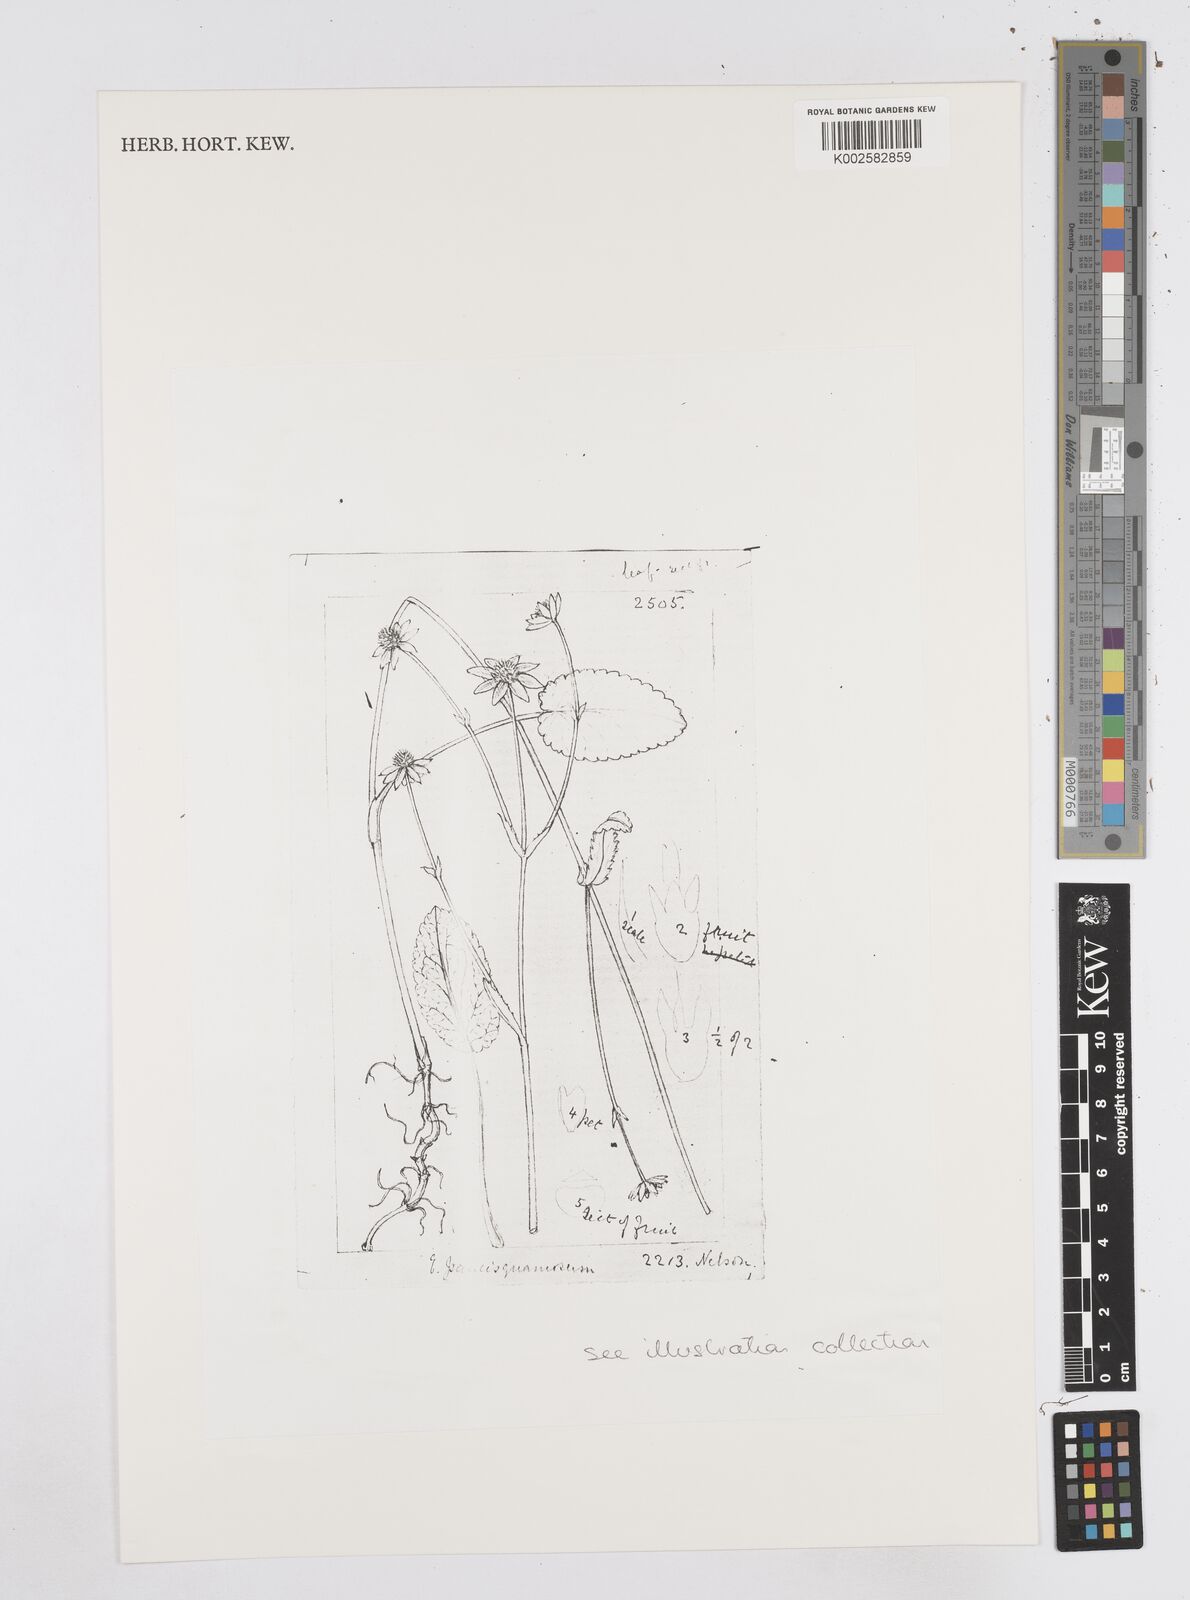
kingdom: Plantae
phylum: Tracheophyta
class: Magnoliopsida
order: Apiales
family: Apiaceae
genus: Eryngium
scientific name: Eryngium gracile
